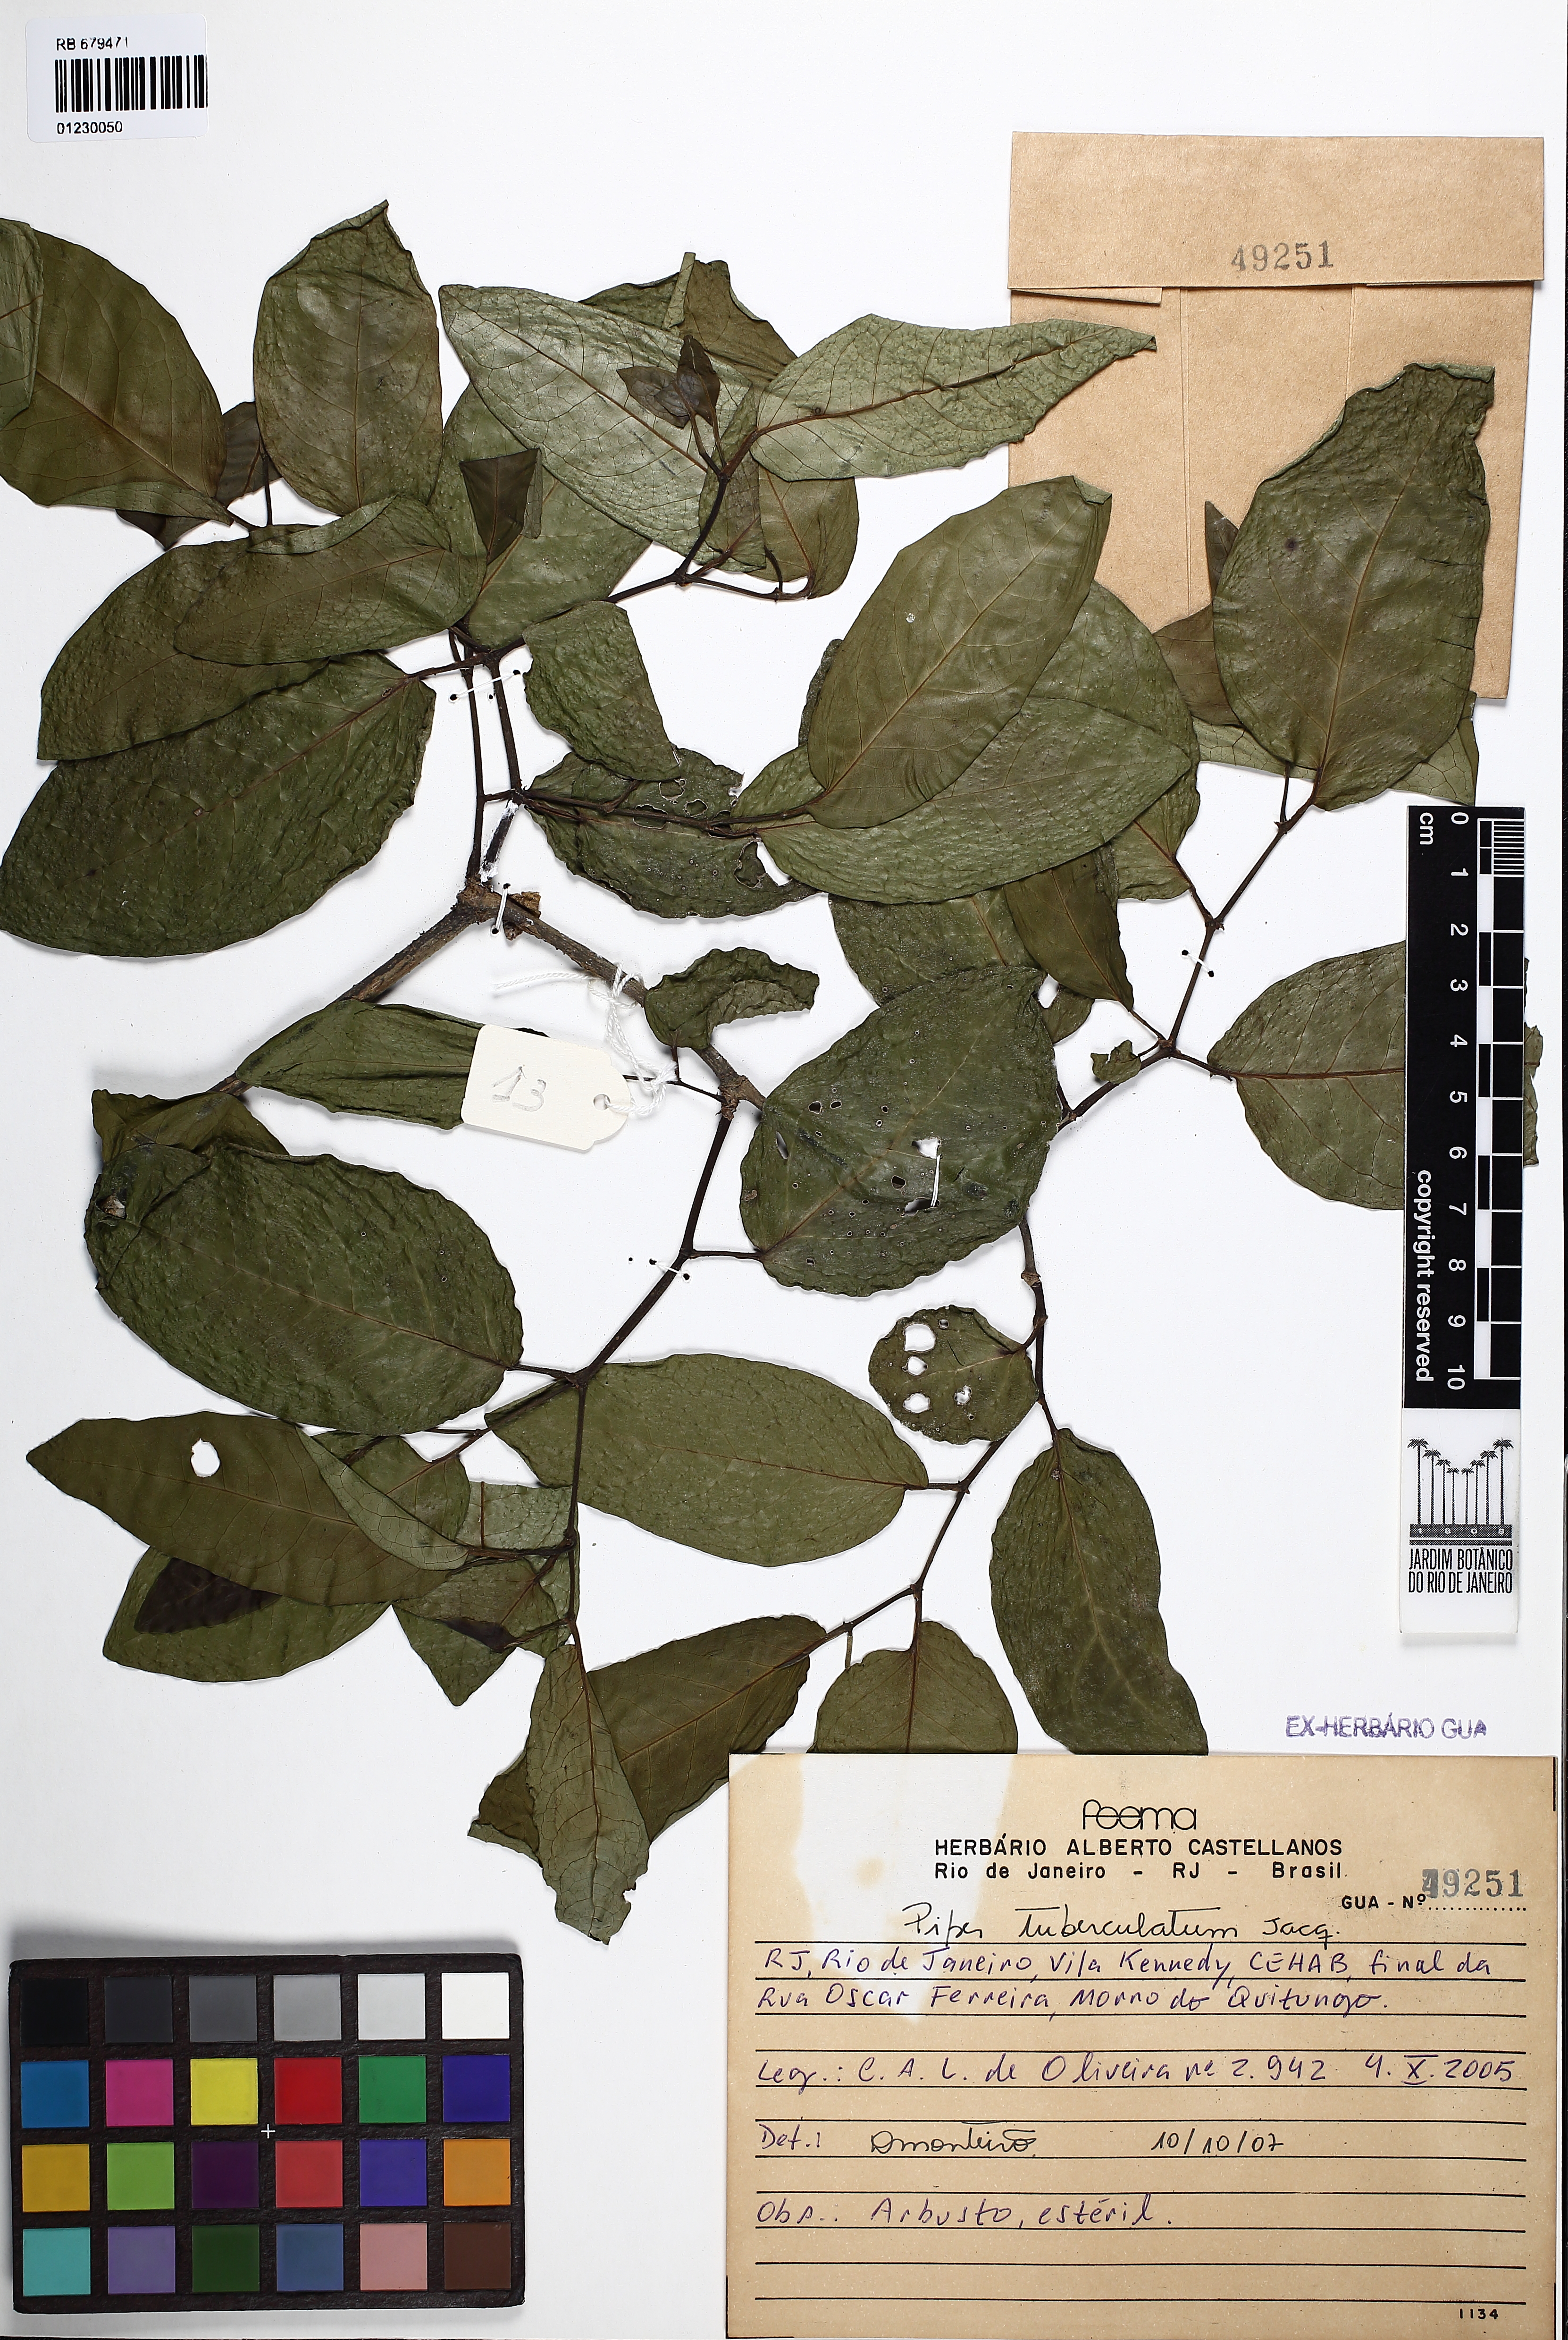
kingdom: Plantae
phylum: Tracheophyta
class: Magnoliopsida
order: Piperales
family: Piperaceae
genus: Piper
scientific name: Piper tuberculatum
